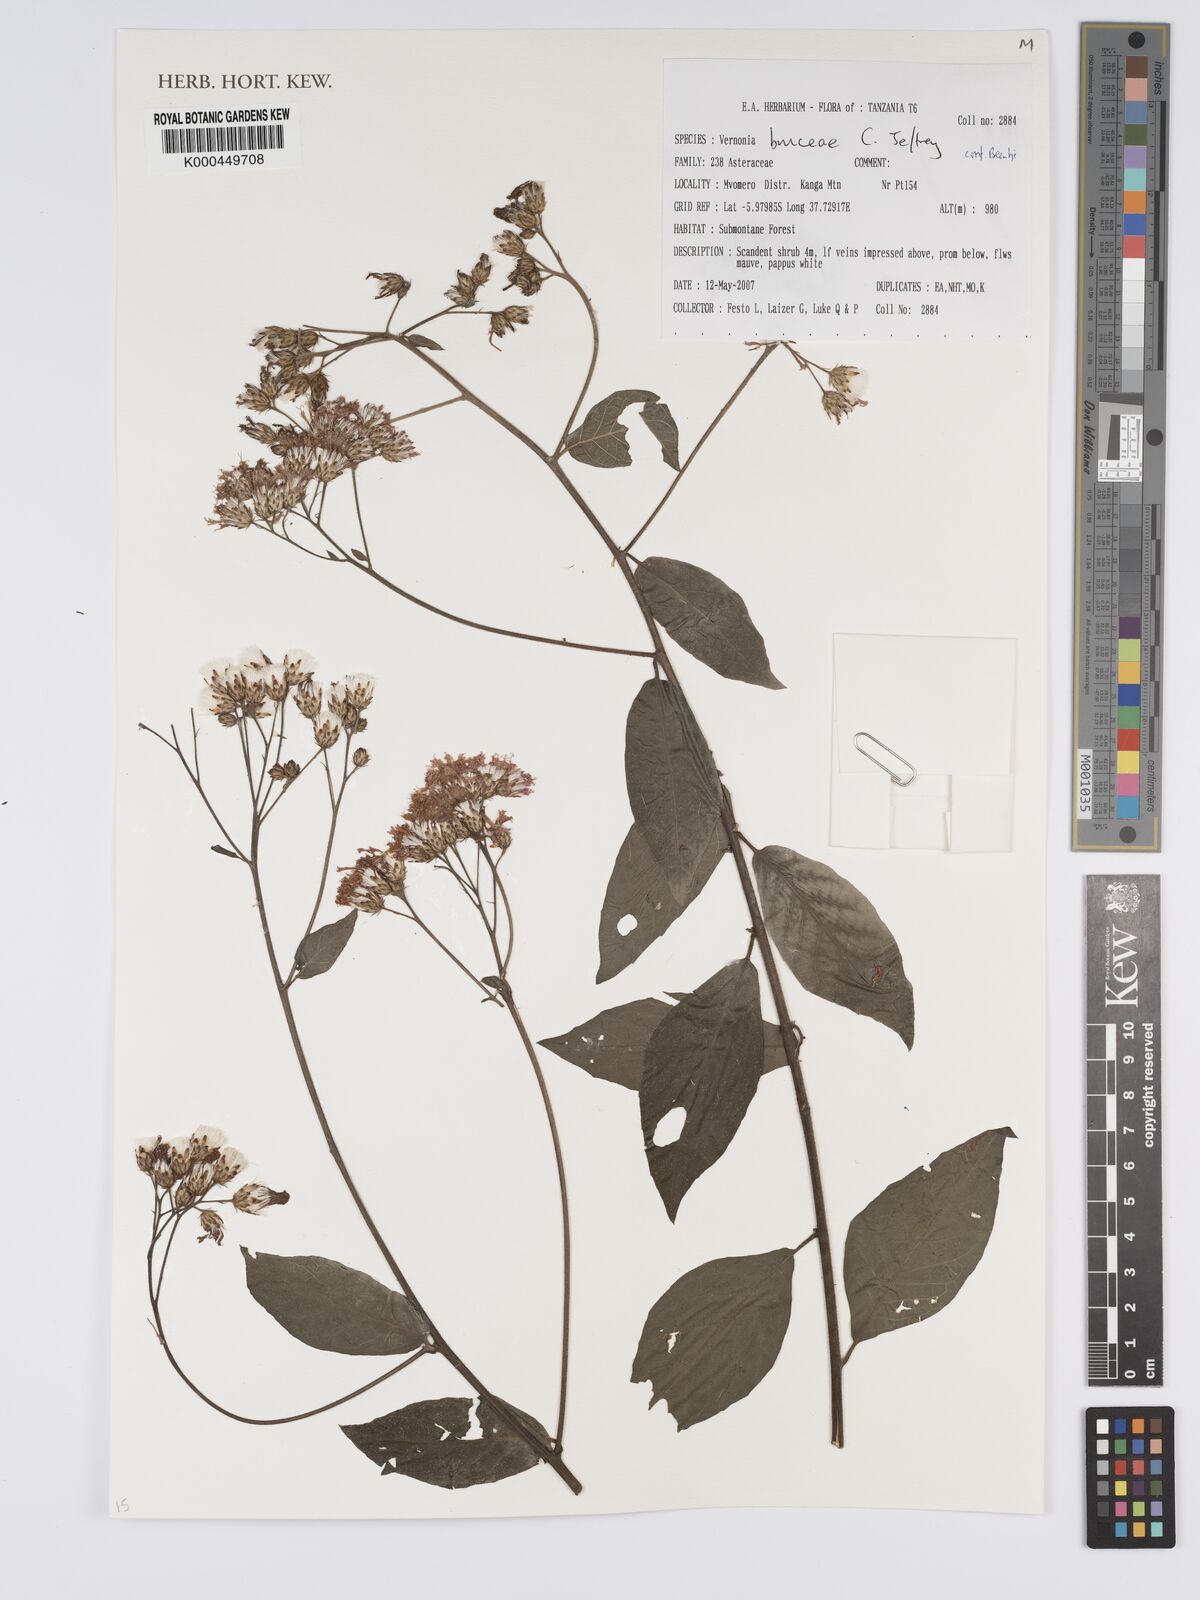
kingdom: Plantae
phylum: Tracheophyta
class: Magnoliopsida
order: Asterales
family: Asteraceae
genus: Vernonia
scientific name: Vernonia bruceae
